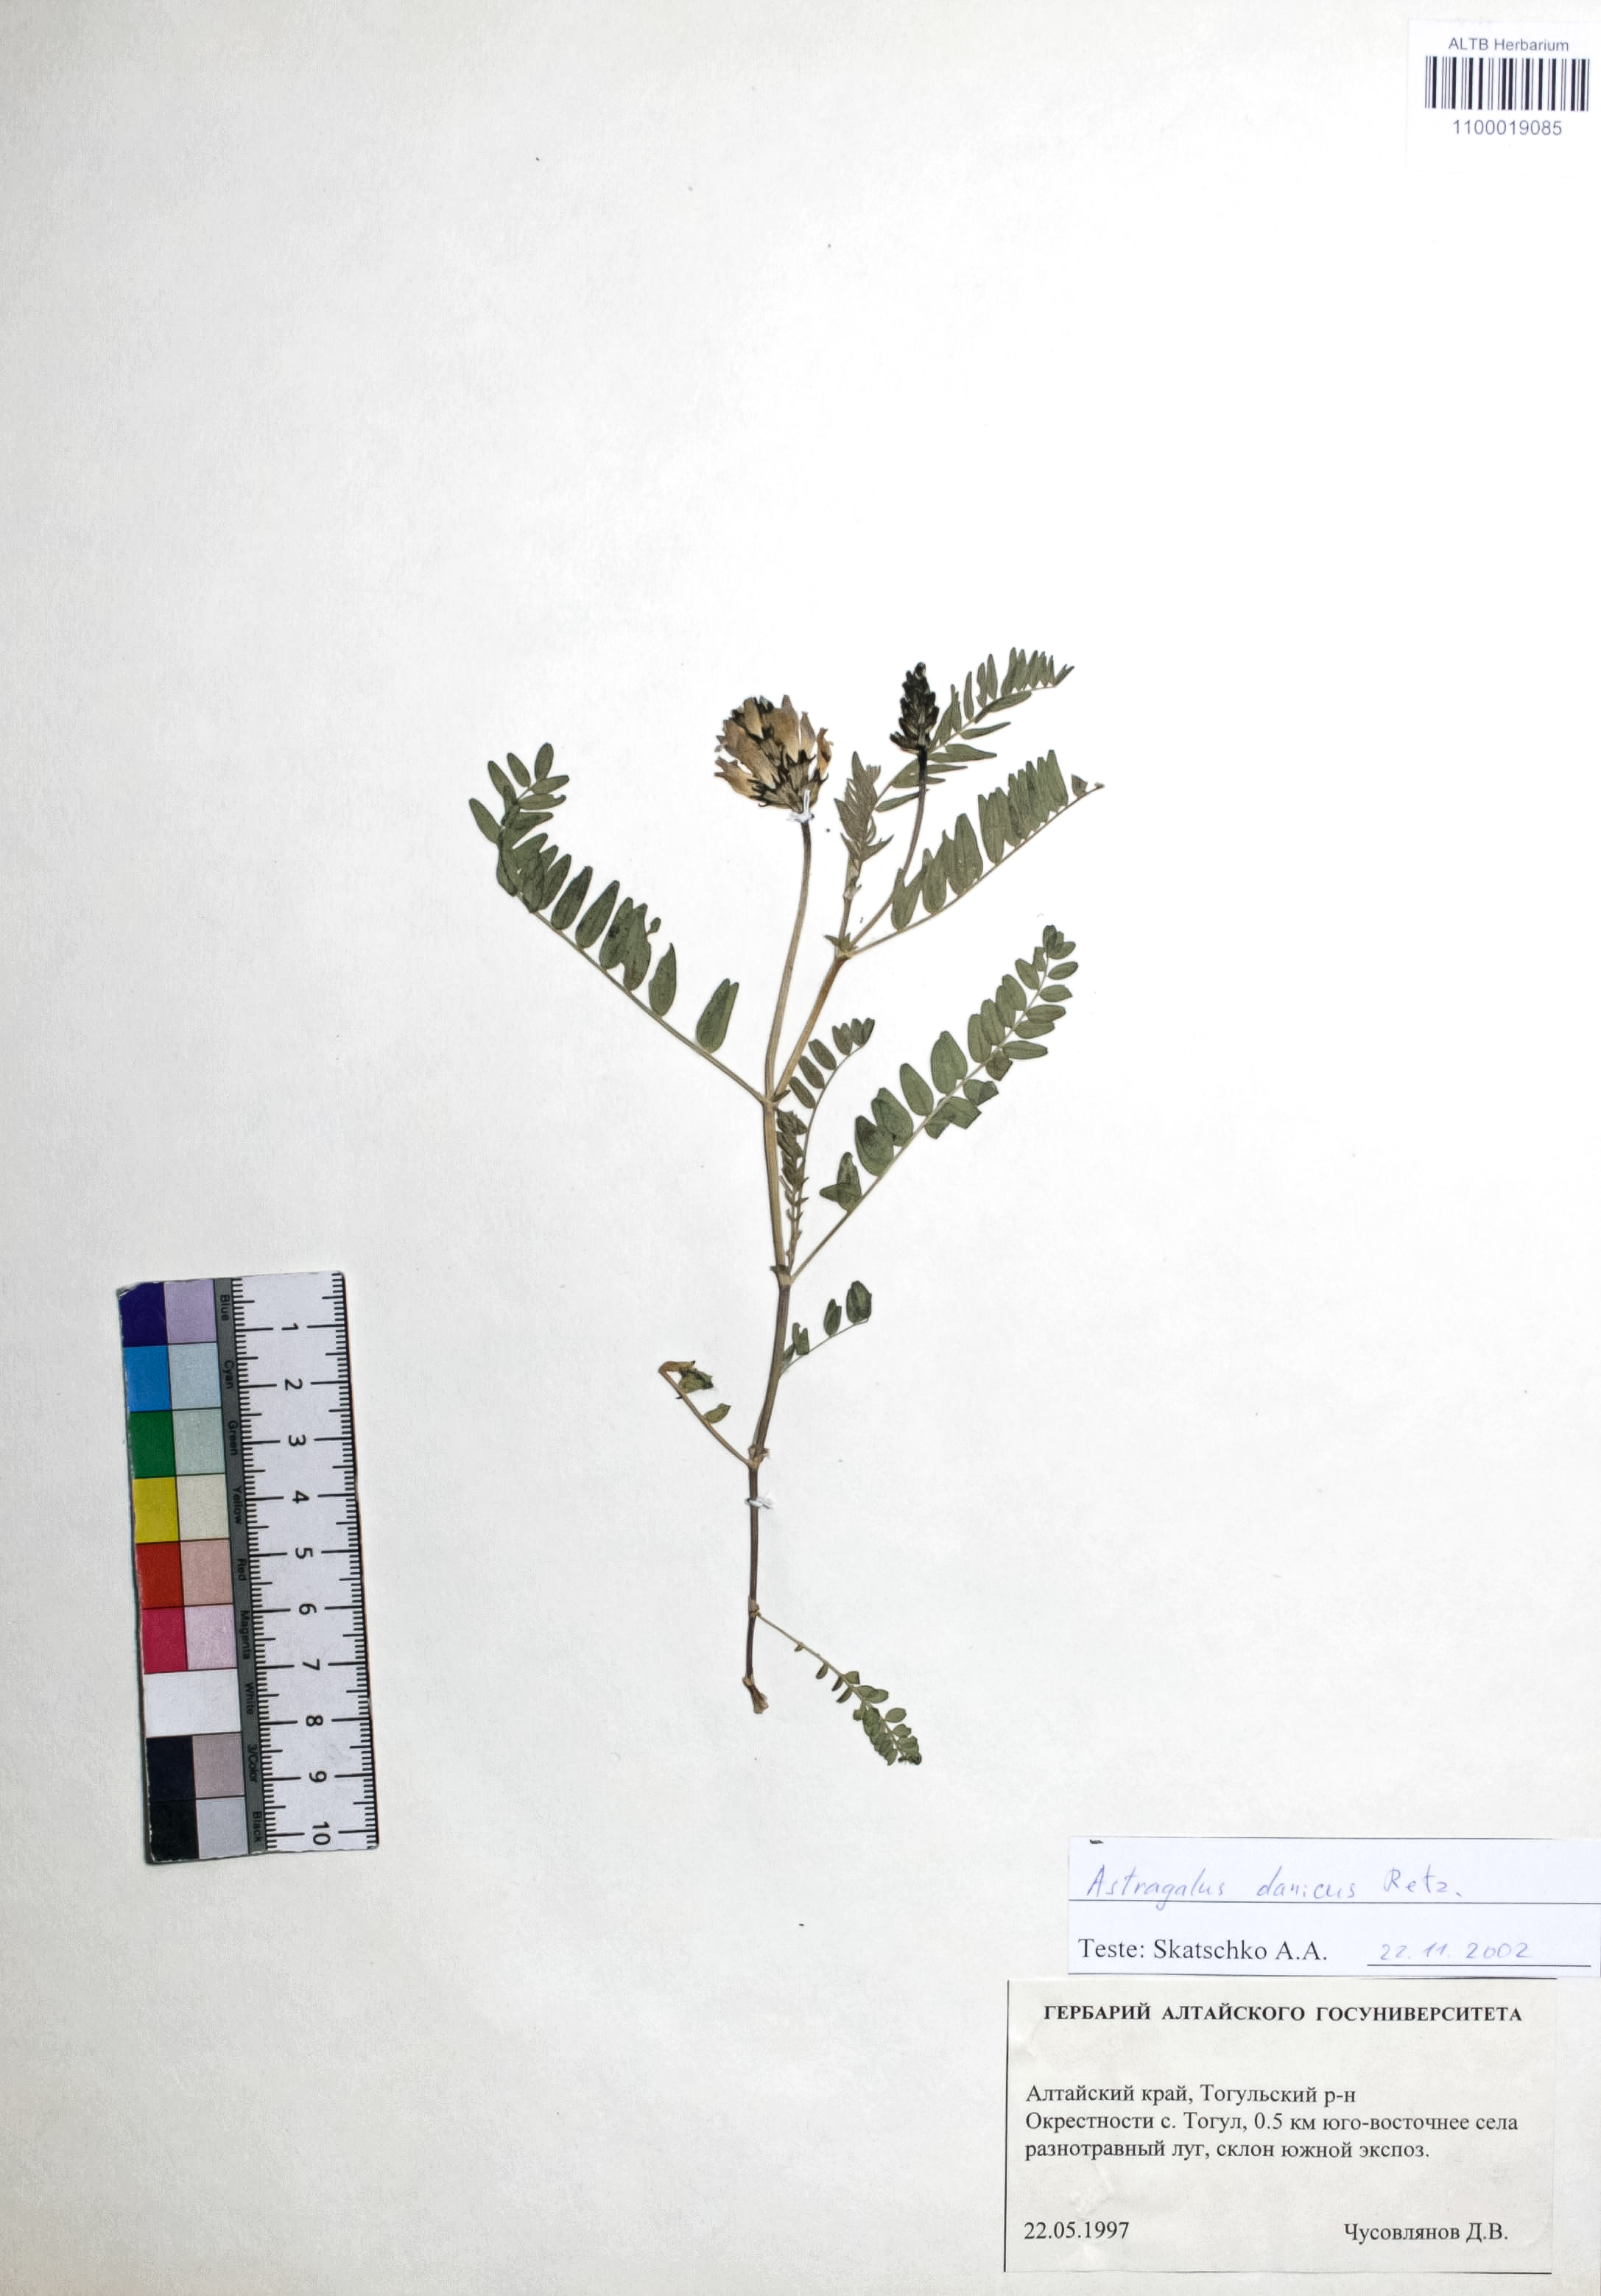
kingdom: Plantae
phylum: Tracheophyta
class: Magnoliopsida
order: Fabales
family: Fabaceae
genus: Astragalus
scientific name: Astragalus danicus
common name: Purple milk-vetch
